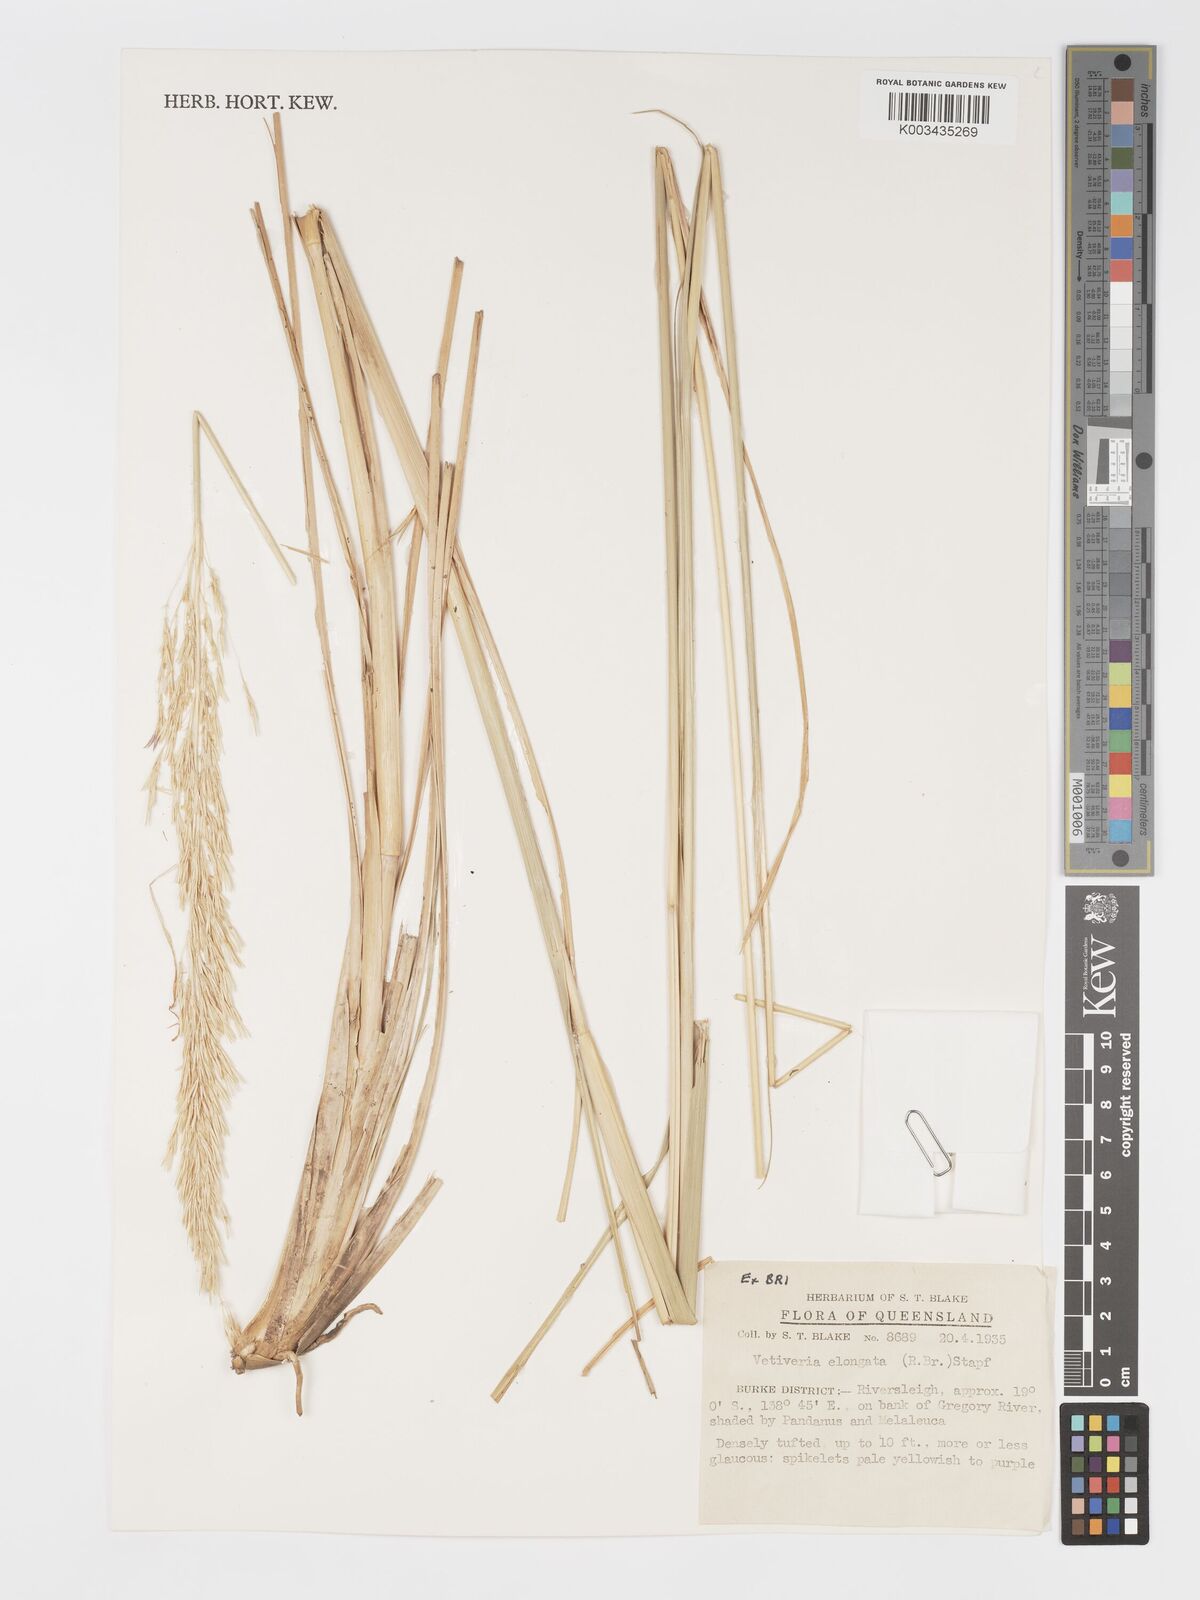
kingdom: Plantae
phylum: Tracheophyta
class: Liliopsida
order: Poales
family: Poaceae
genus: Chrysopogon
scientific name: Chrysopogon elongatus
